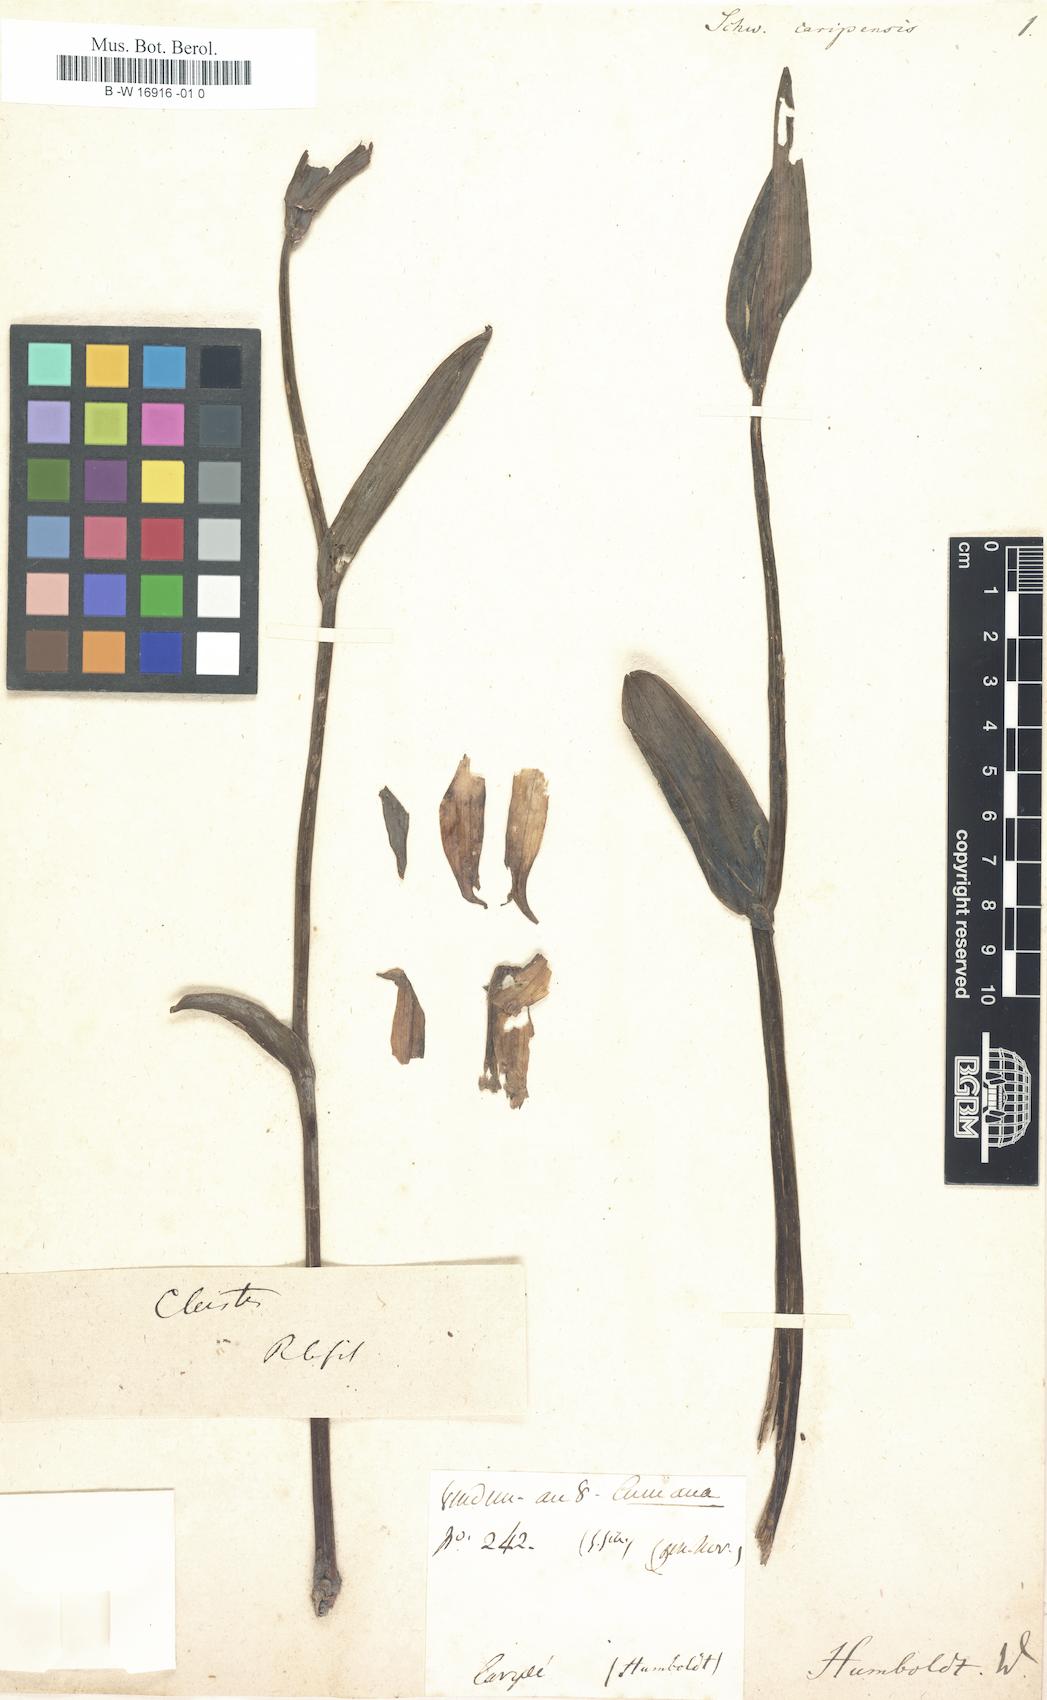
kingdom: Plantae
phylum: Tracheophyta
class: Liliopsida
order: Commelinales
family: Haemodoraceae
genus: Anigozanthos
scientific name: Anigozanthos
